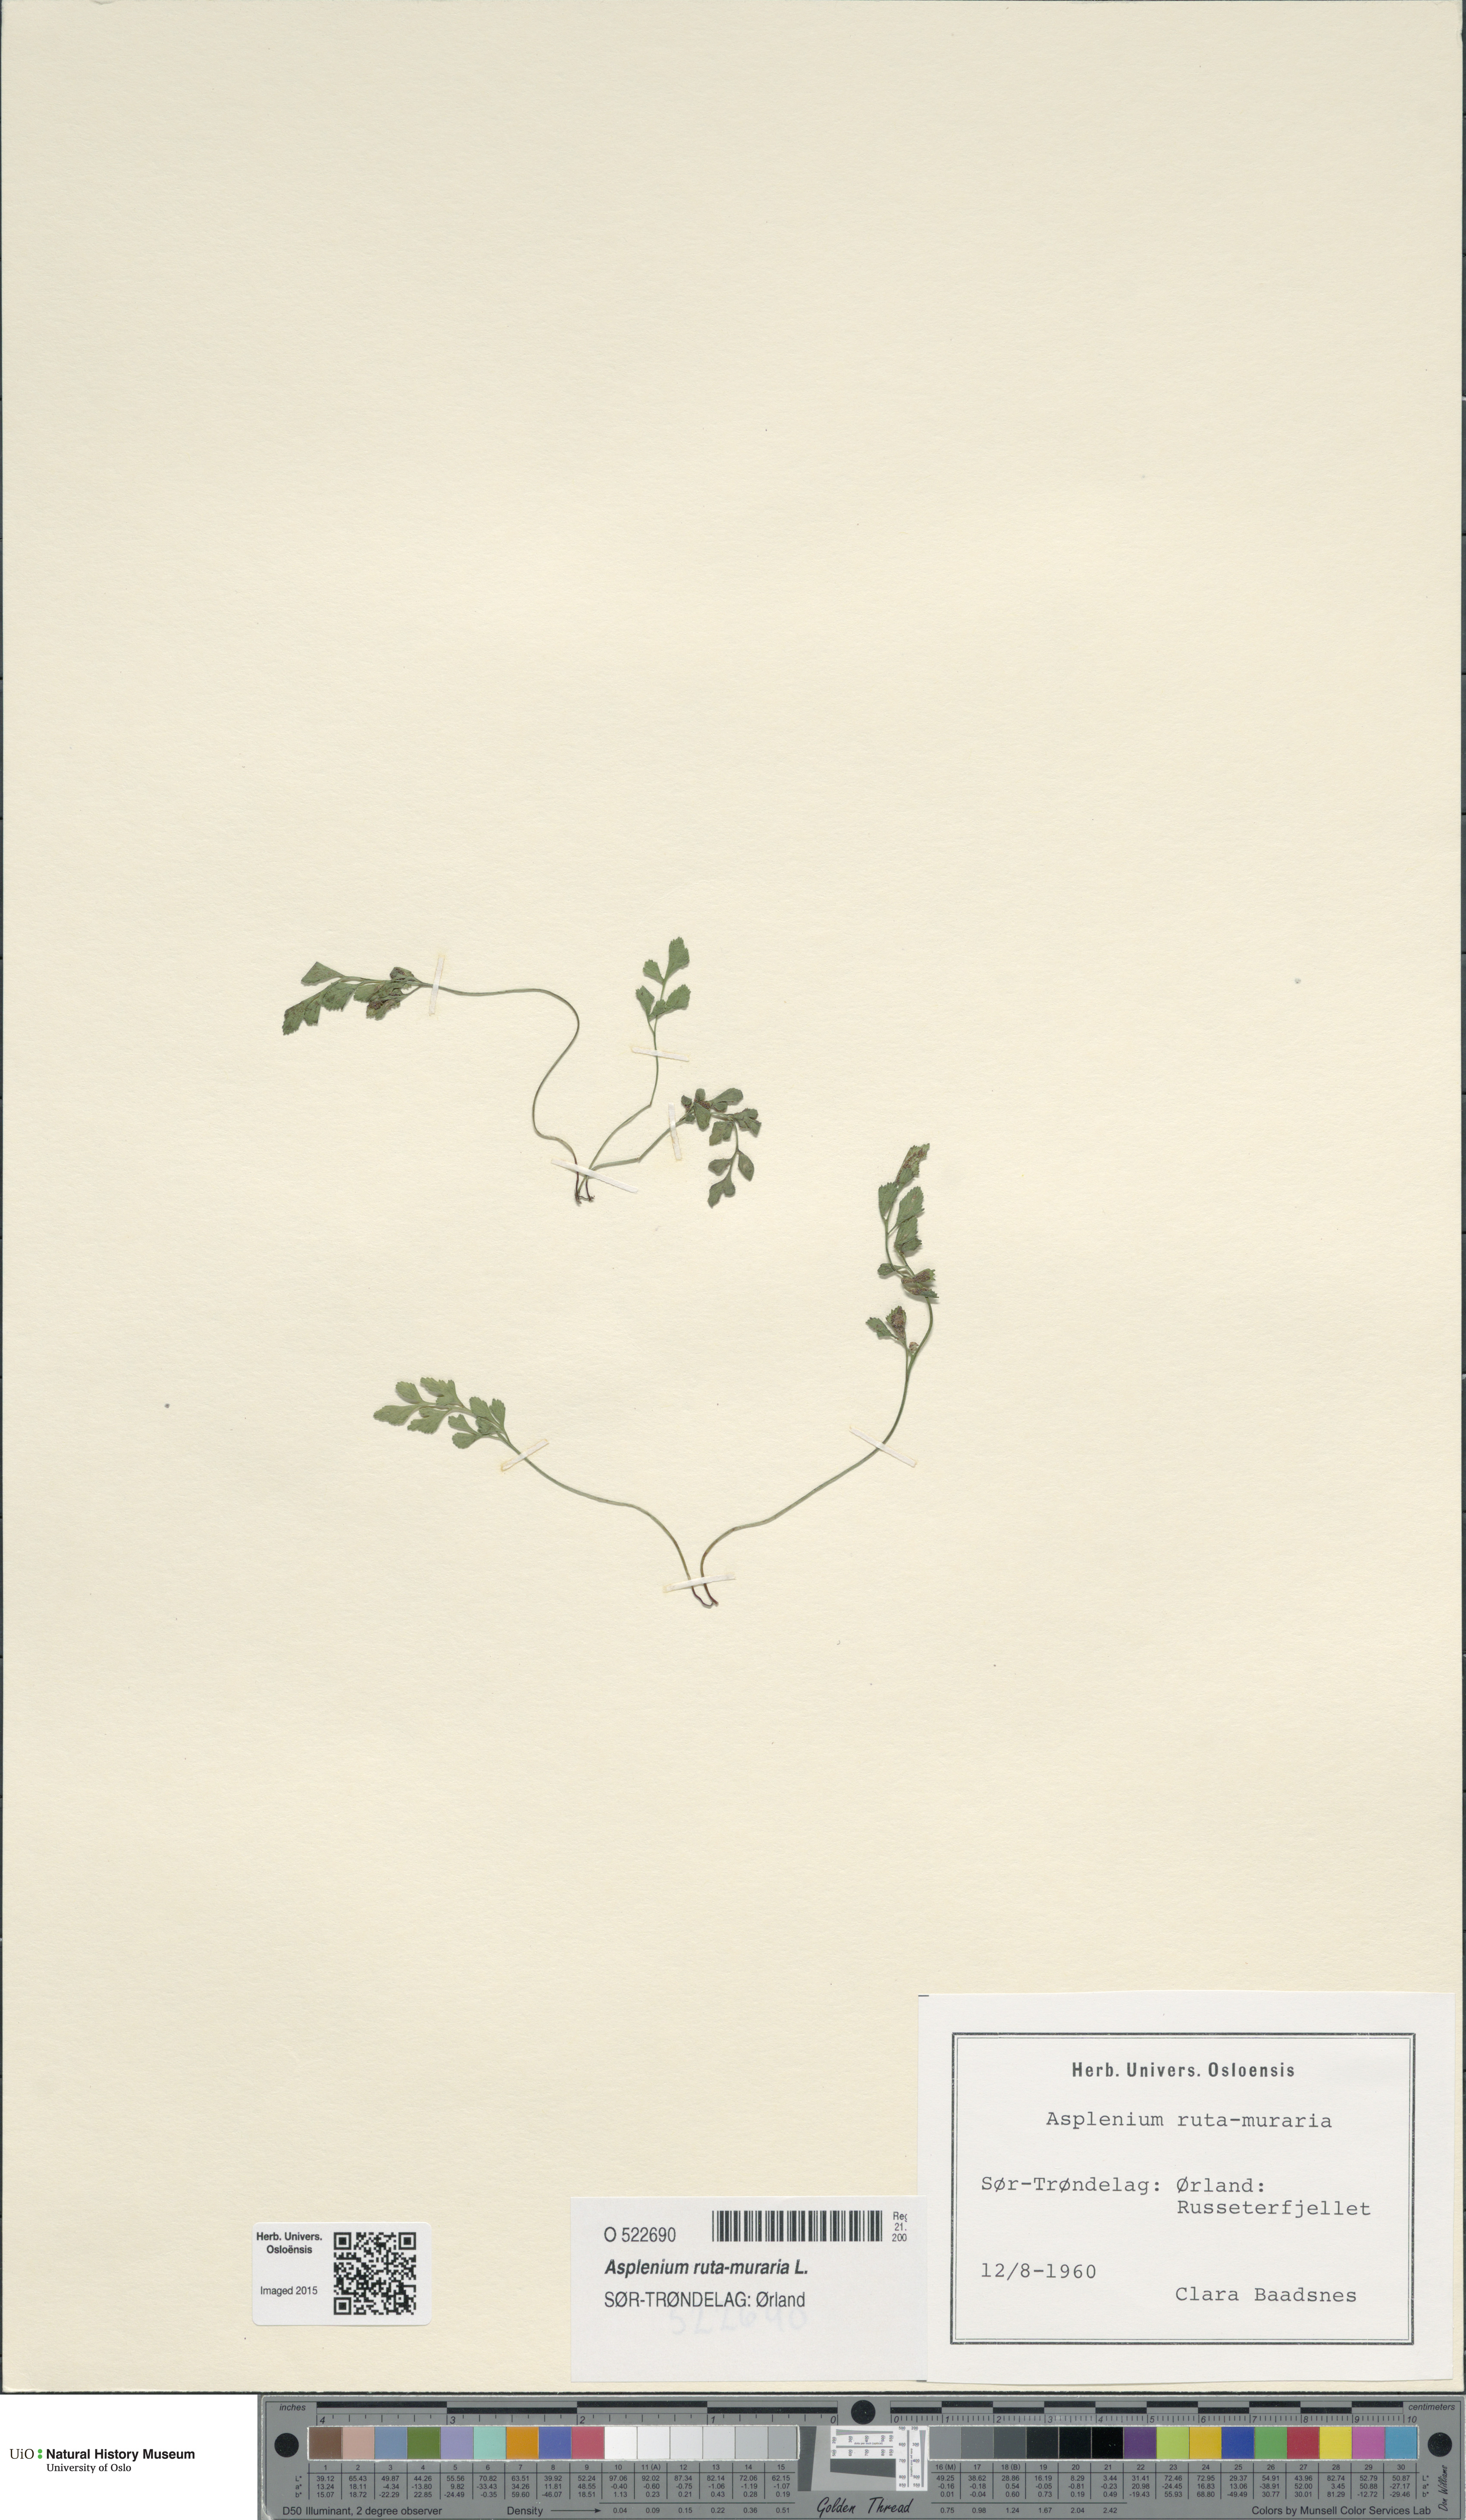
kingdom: Plantae
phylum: Tracheophyta
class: Polypodiopsida
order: Polypodiales
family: Aspleniaceae
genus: Asplenium
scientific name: Asplenium ruta-muraria
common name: Wall-rue
